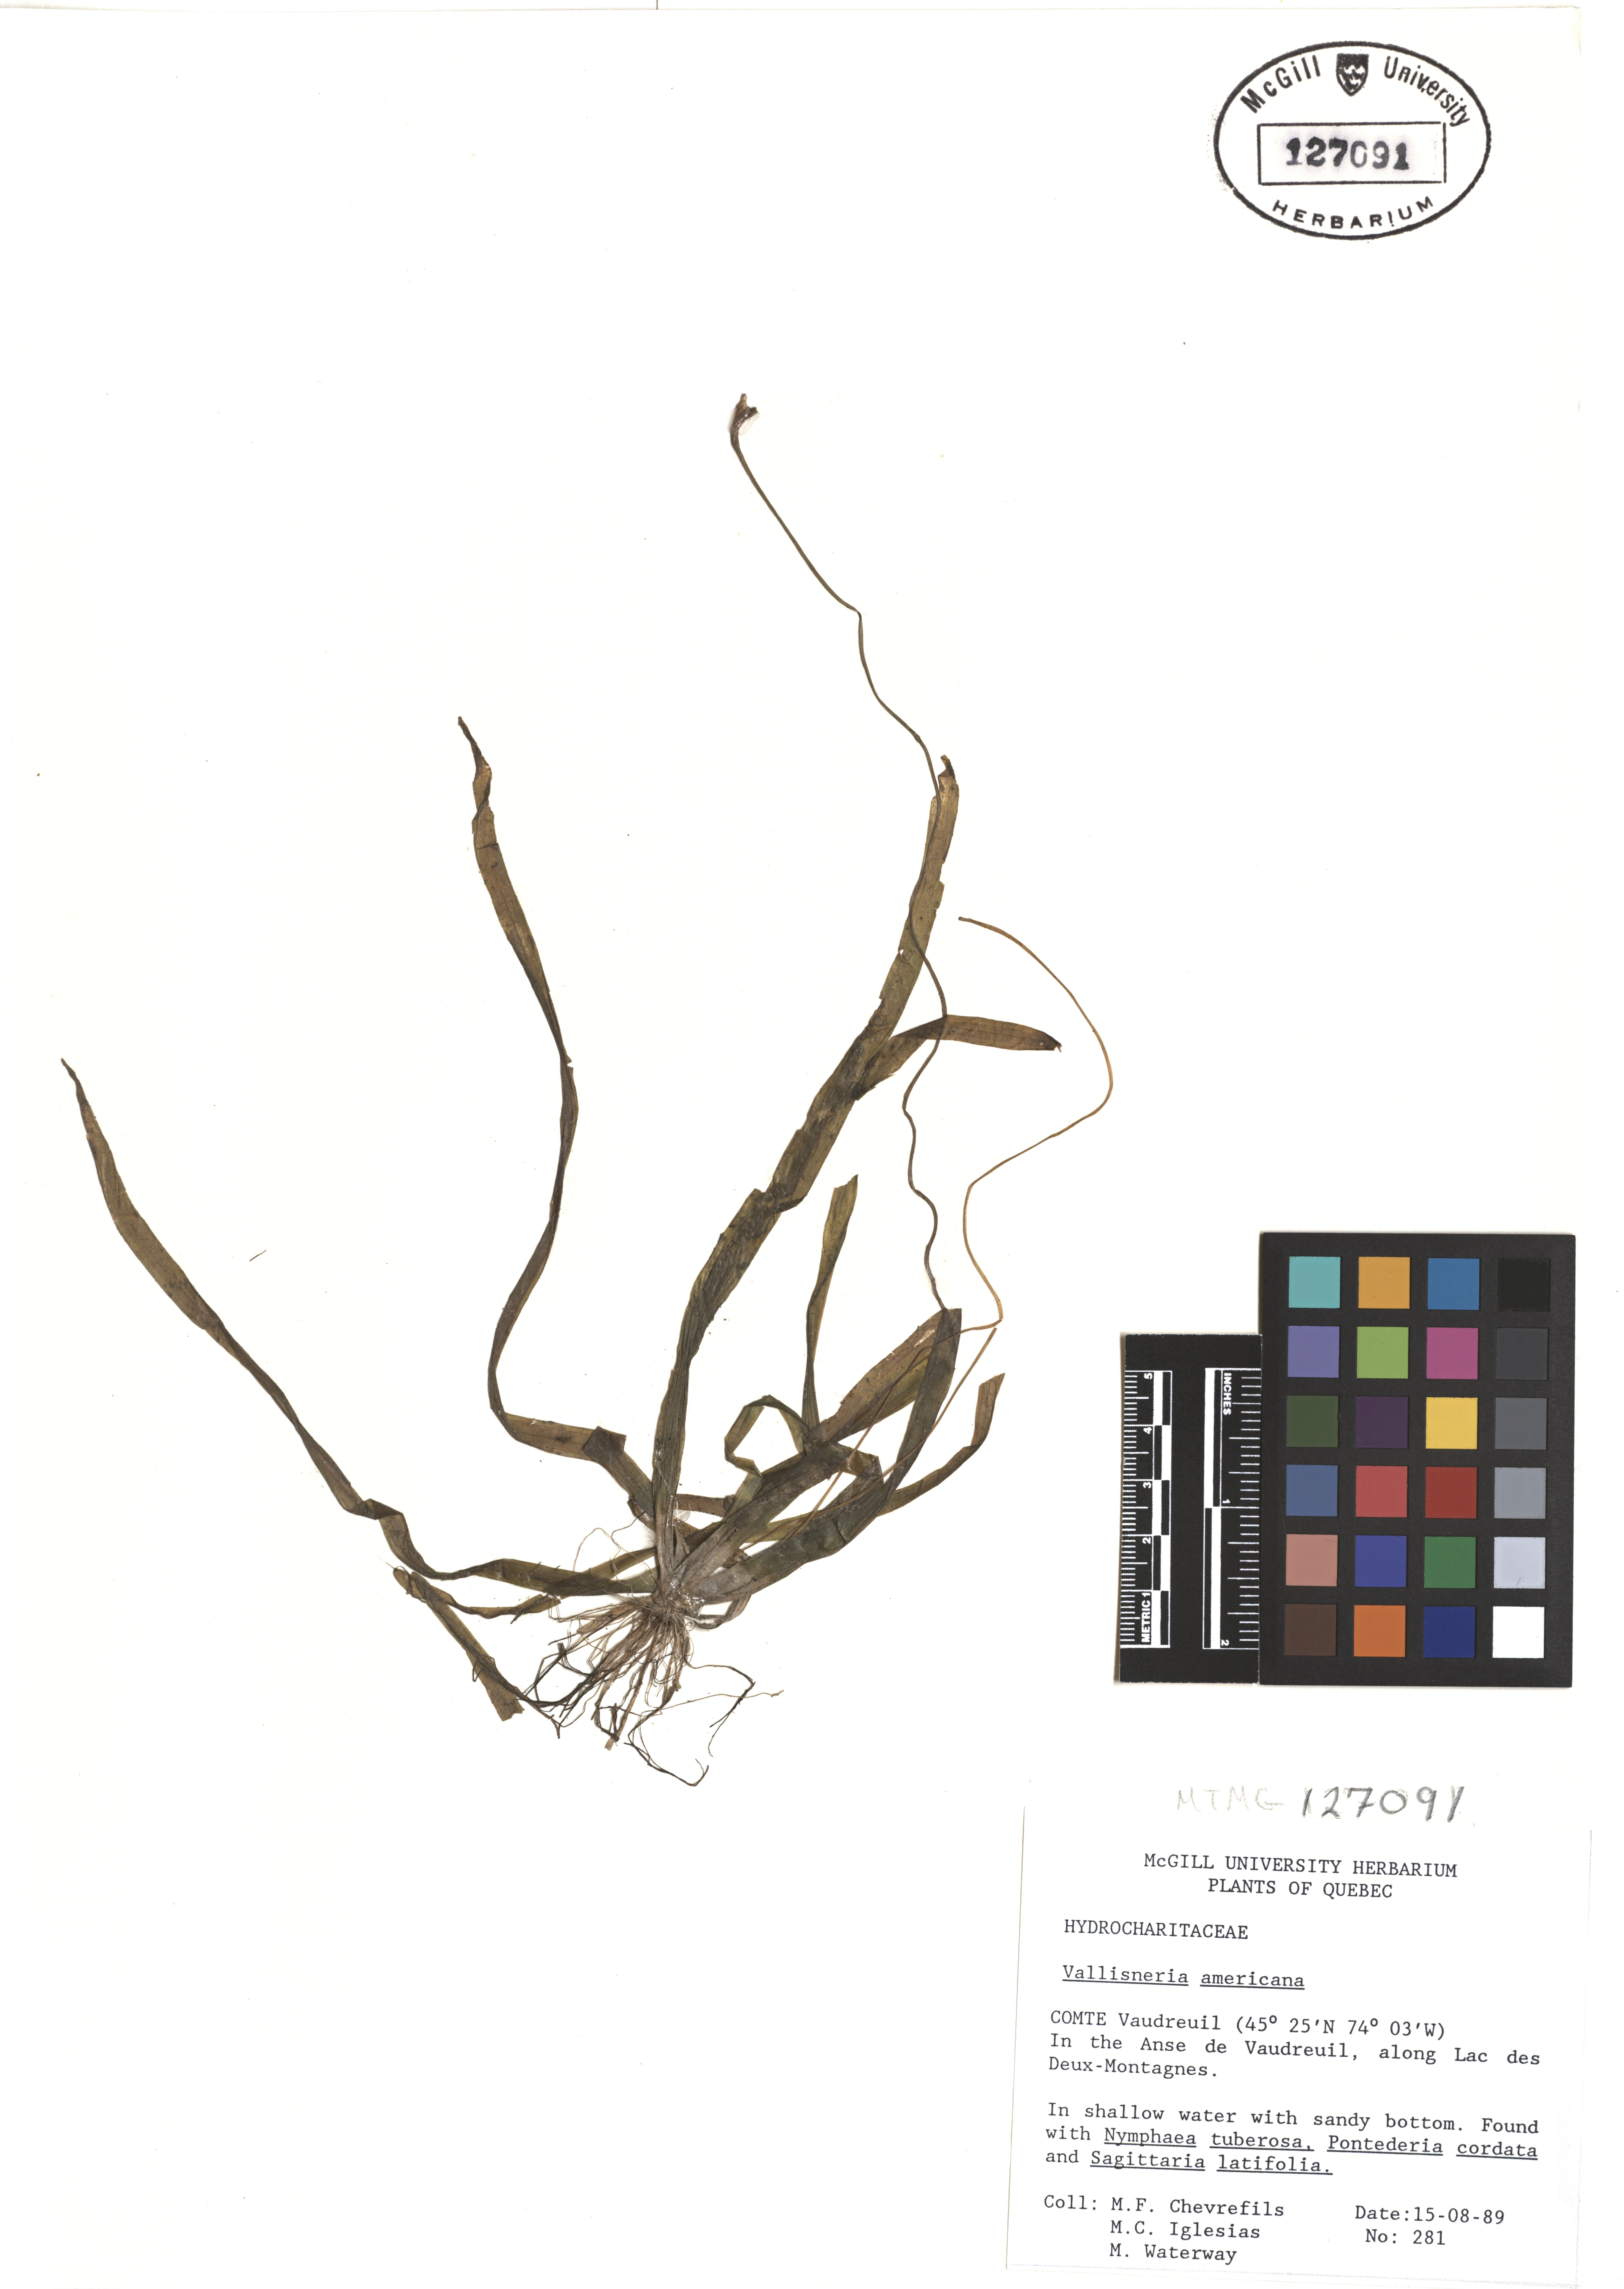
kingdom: Plantae
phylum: Tracheophyta
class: Liliopsida
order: Alismatales
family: Hydrocharitaceae
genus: Vallisneria
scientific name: Vallisneria americana
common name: American eelgrass
